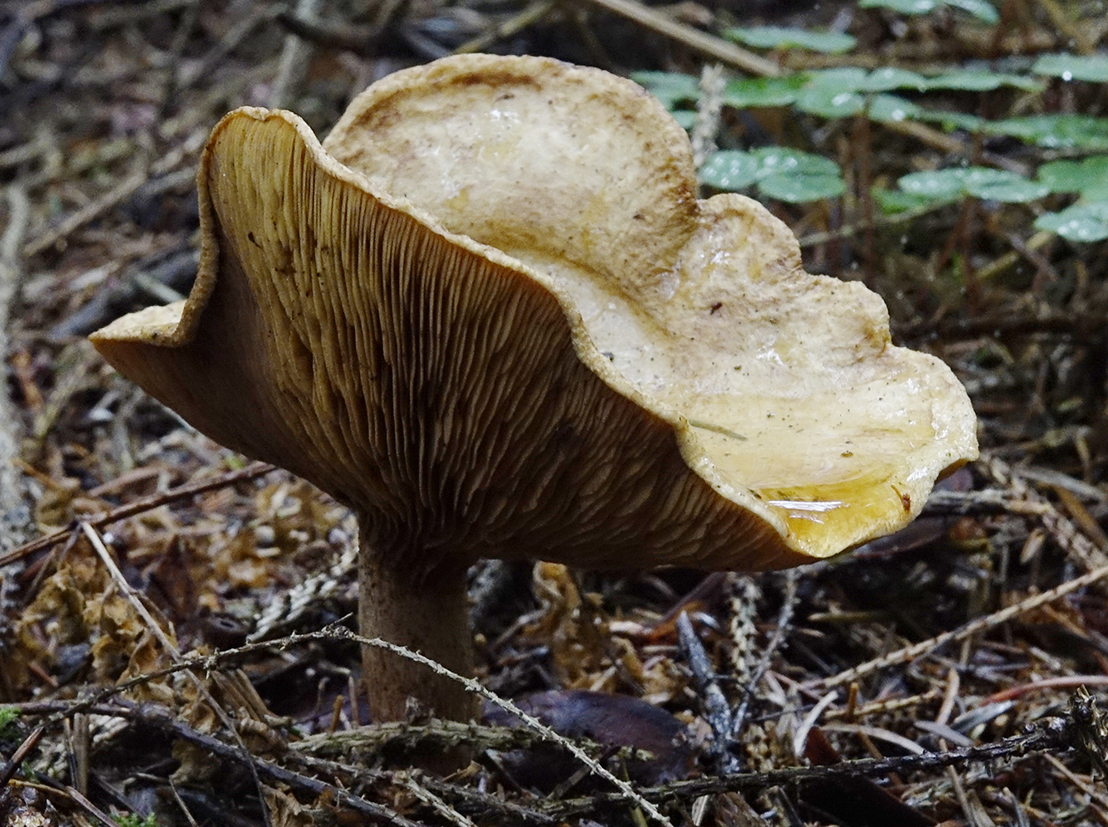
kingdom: Fungi
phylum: Basidiomycota
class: Agaricomycetes
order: Boletales
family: Paxillaceae
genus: Paxillus
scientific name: Paxillus involutus
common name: almindelig netbladhat
